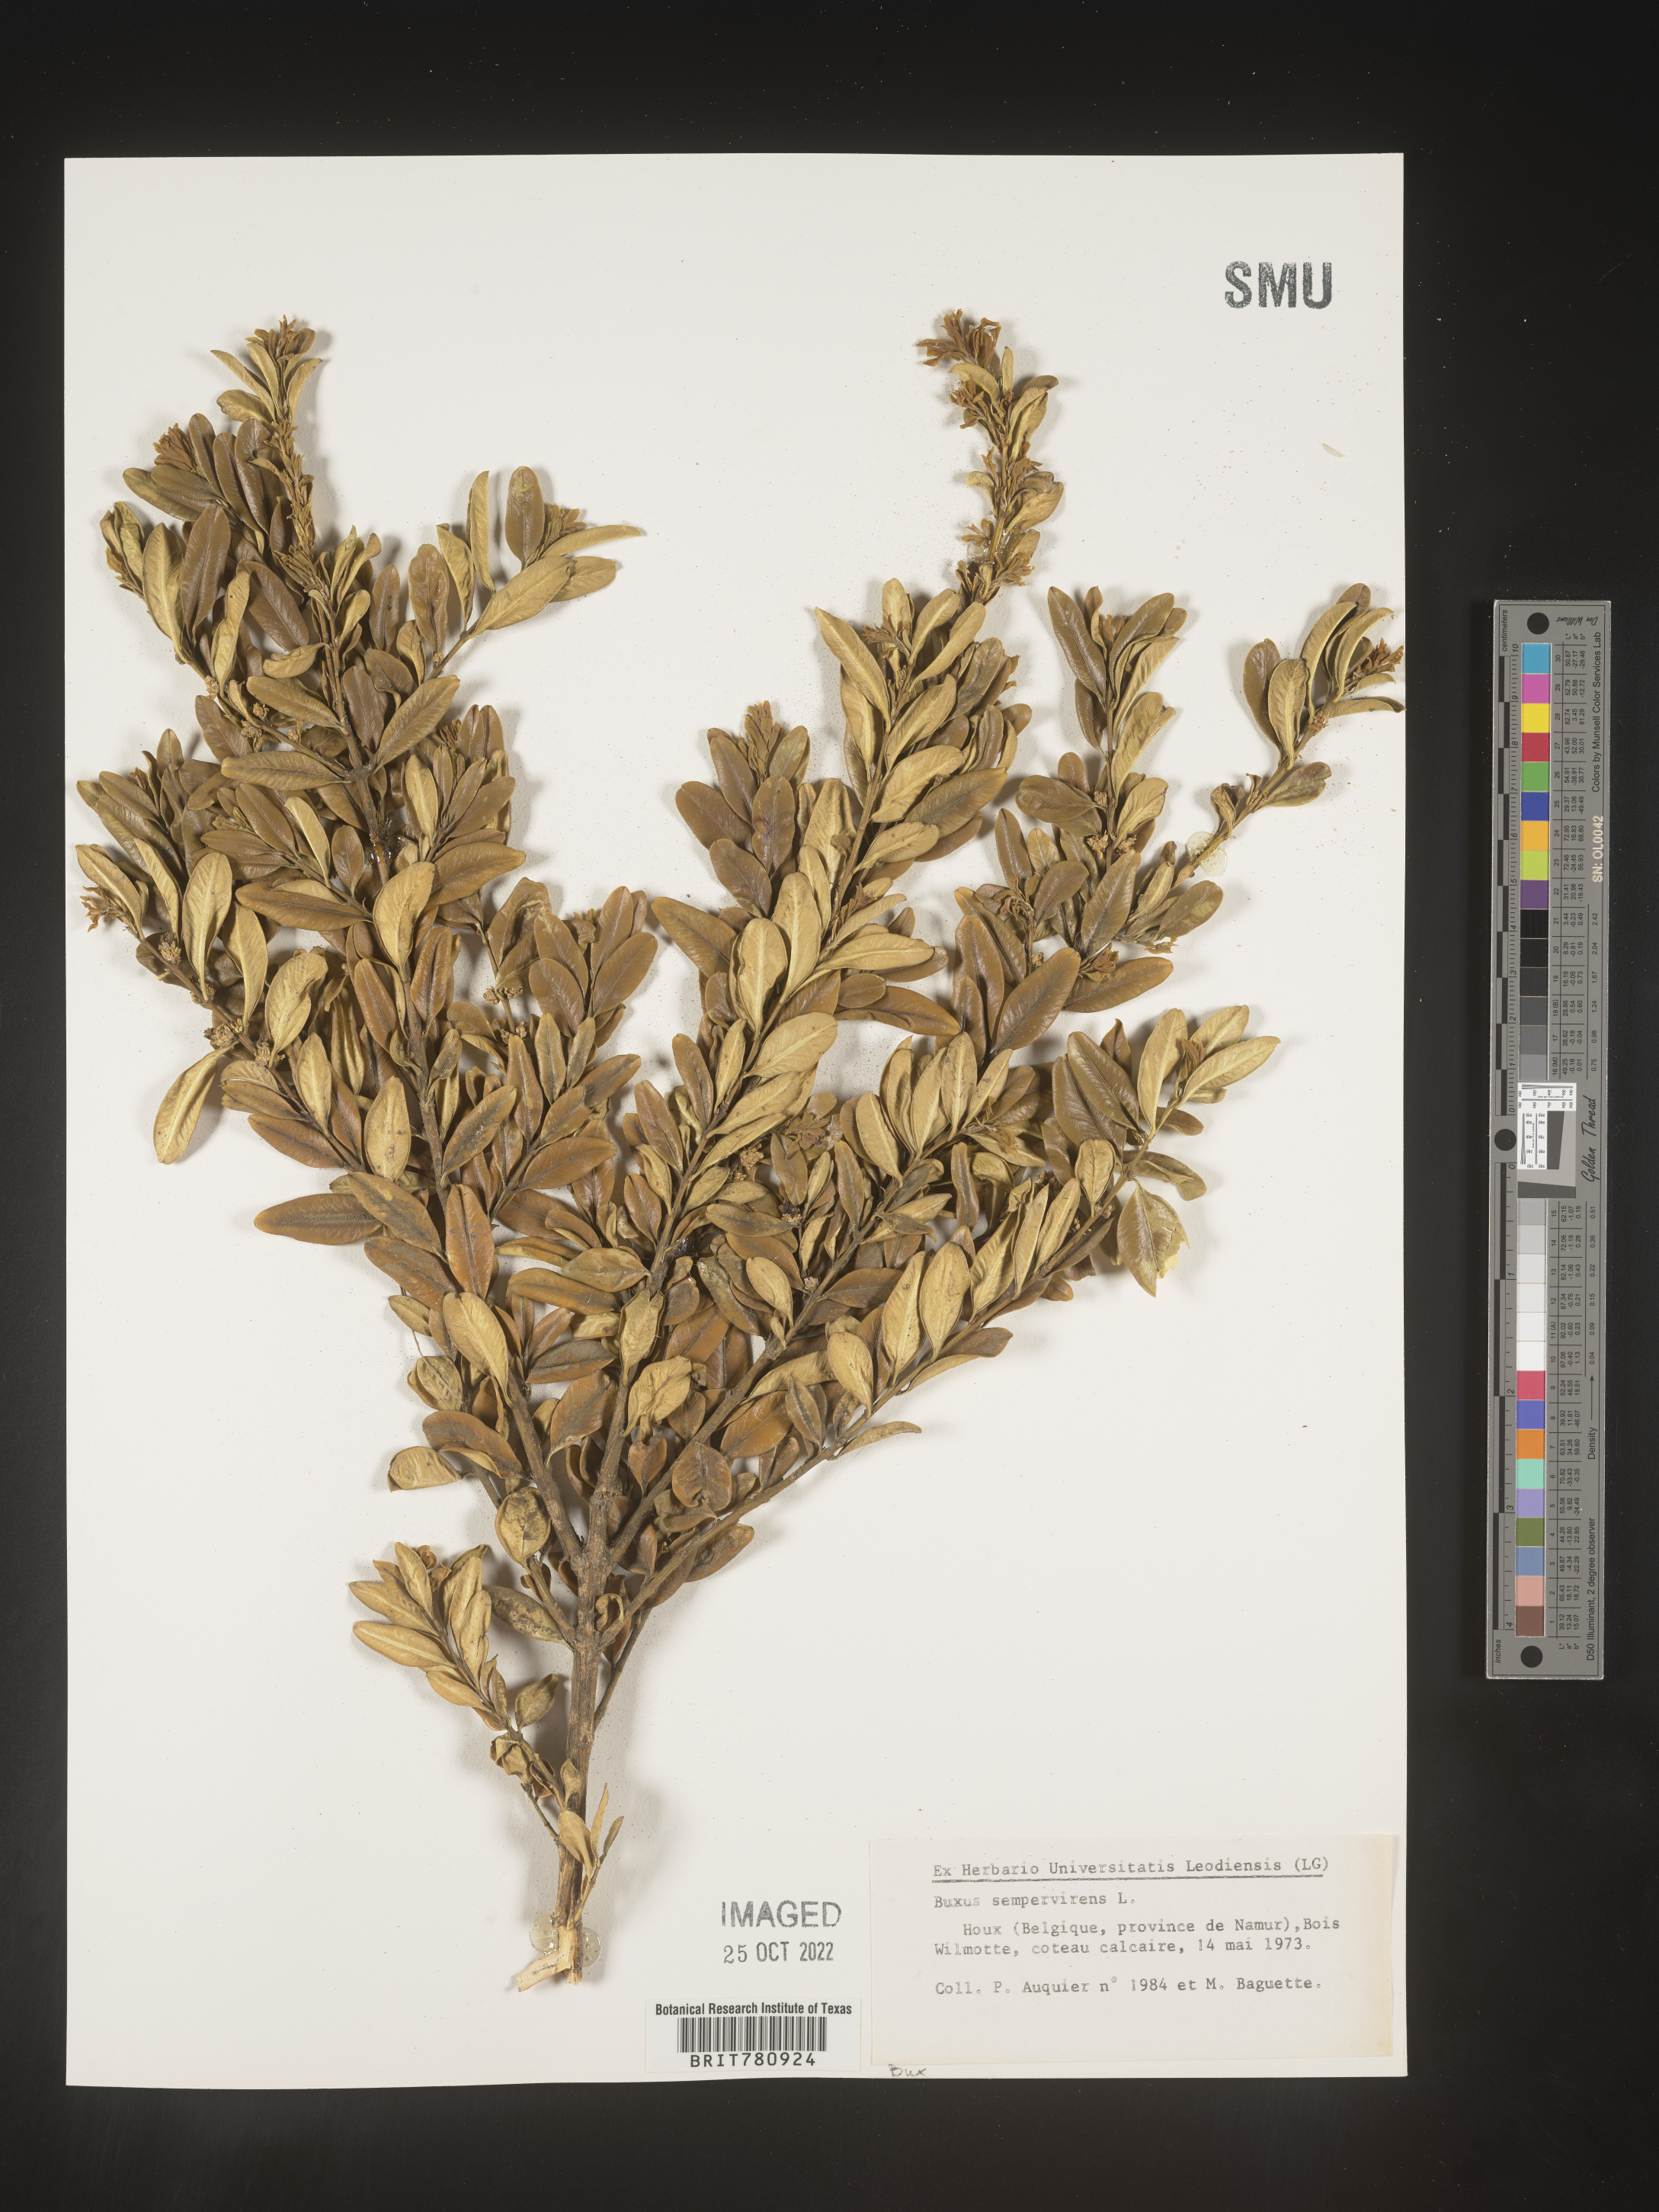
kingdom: Plantae
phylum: Tracheophyta
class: Magnoliopsida
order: Buxales
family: Buxaceae
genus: Buxus
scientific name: Buxus
